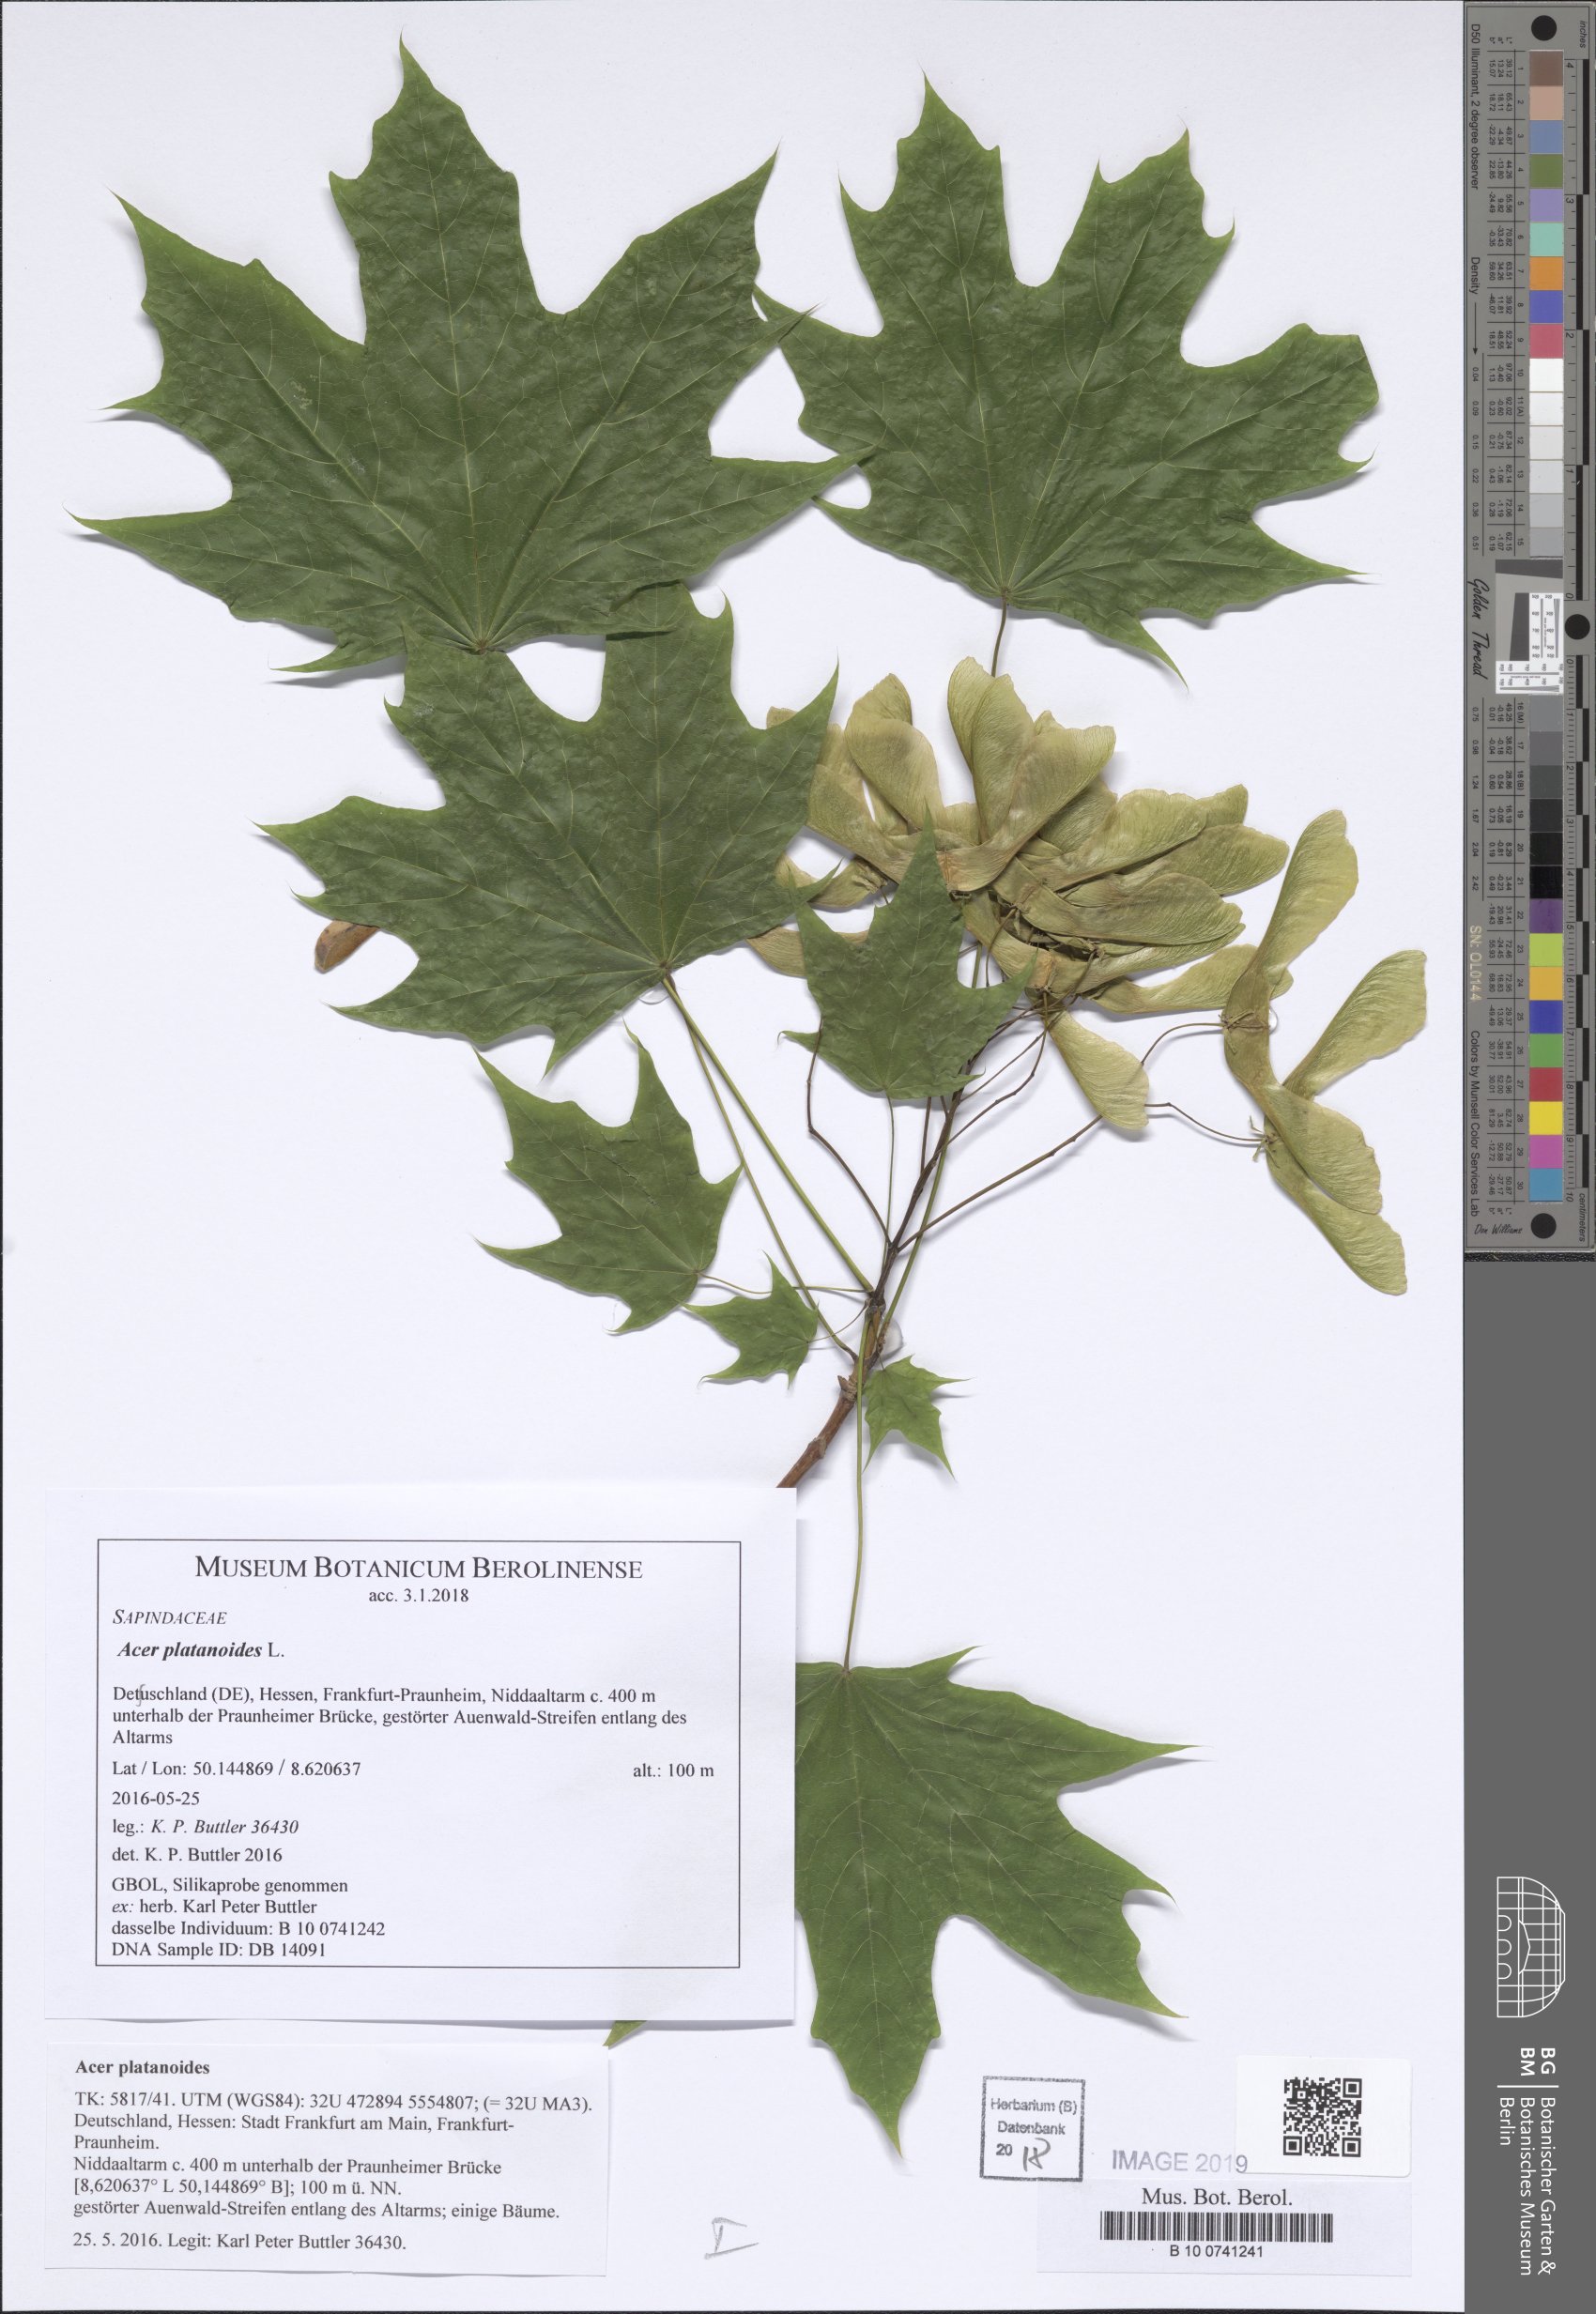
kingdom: Plantae
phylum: Tracheophyta
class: Magnoliopsida
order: Sapindales
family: Sapindaceae
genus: Acer
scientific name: Acer platanoides
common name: Norway maple
